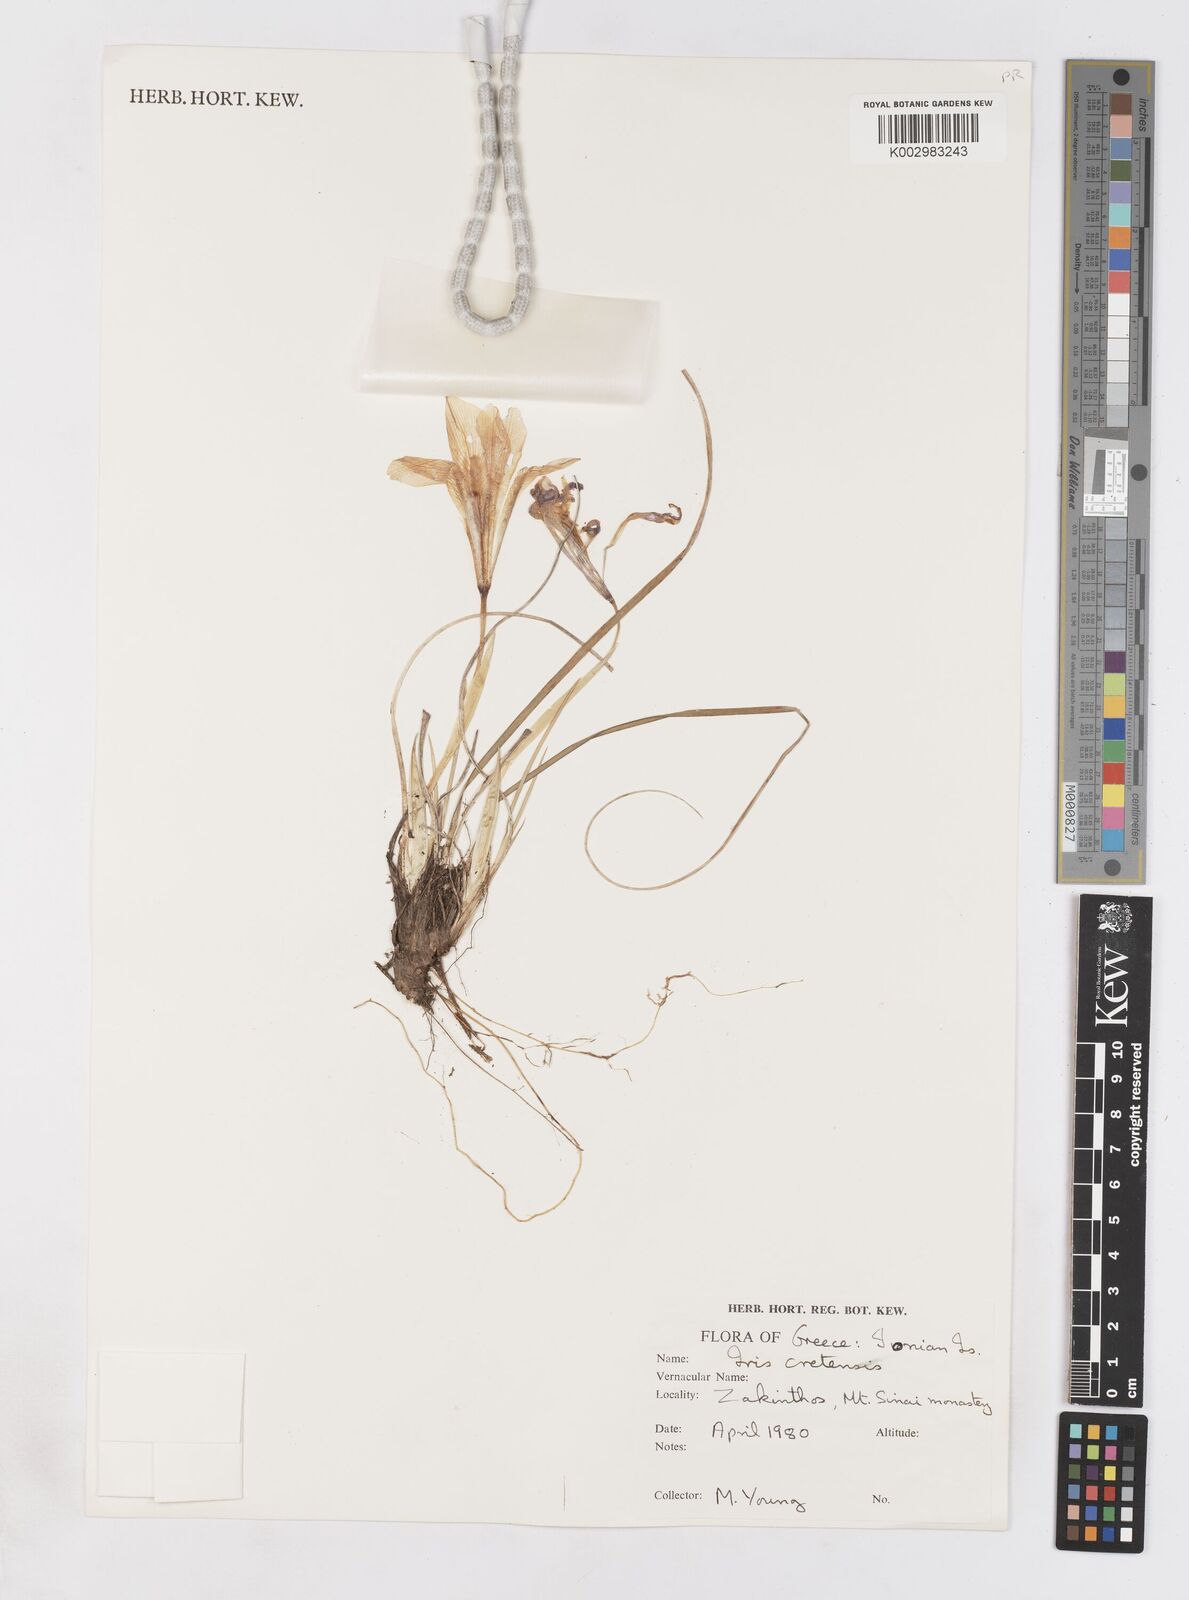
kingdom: Plantae
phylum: Tracheophyta
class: Liliopsida
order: Asparagales
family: Iridaceae
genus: Iris
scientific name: Iris unguicularis
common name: Algerian iris
